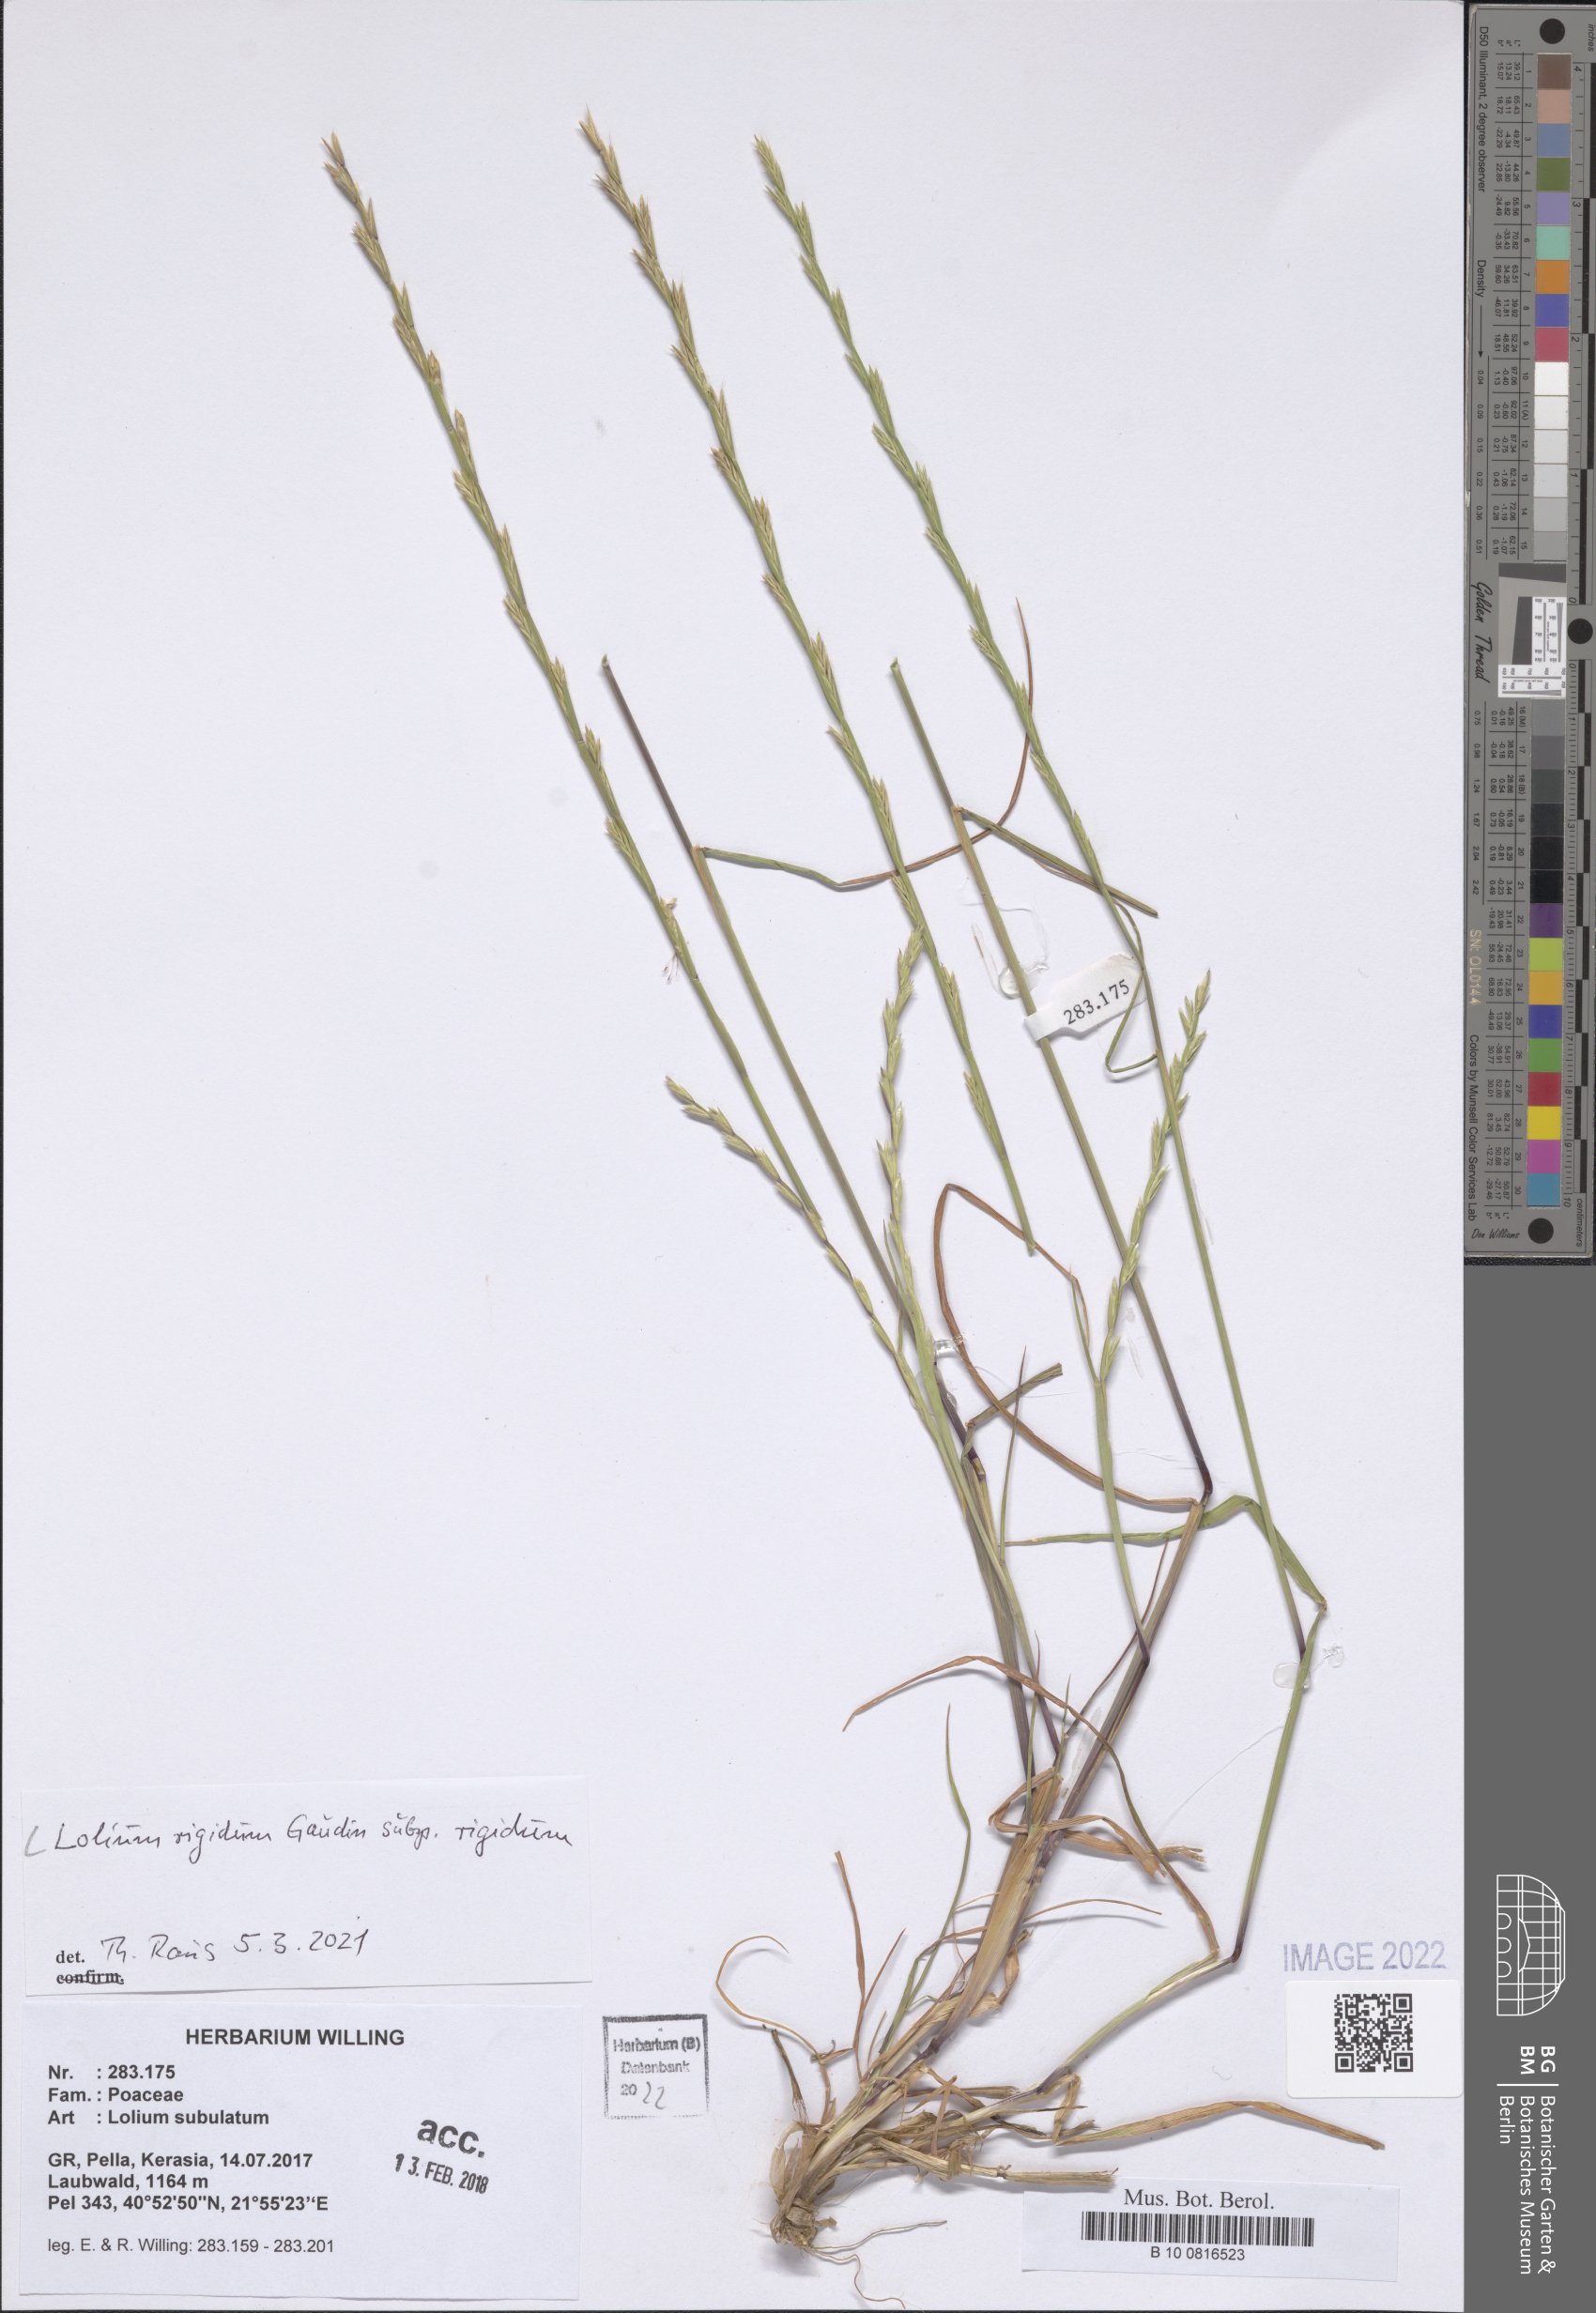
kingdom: Plantae
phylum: Tracheophyta
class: Liliopsida
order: Poales
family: Poaceae
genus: Lolium
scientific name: Lolium rigidum
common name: Wimmera ryegrass
